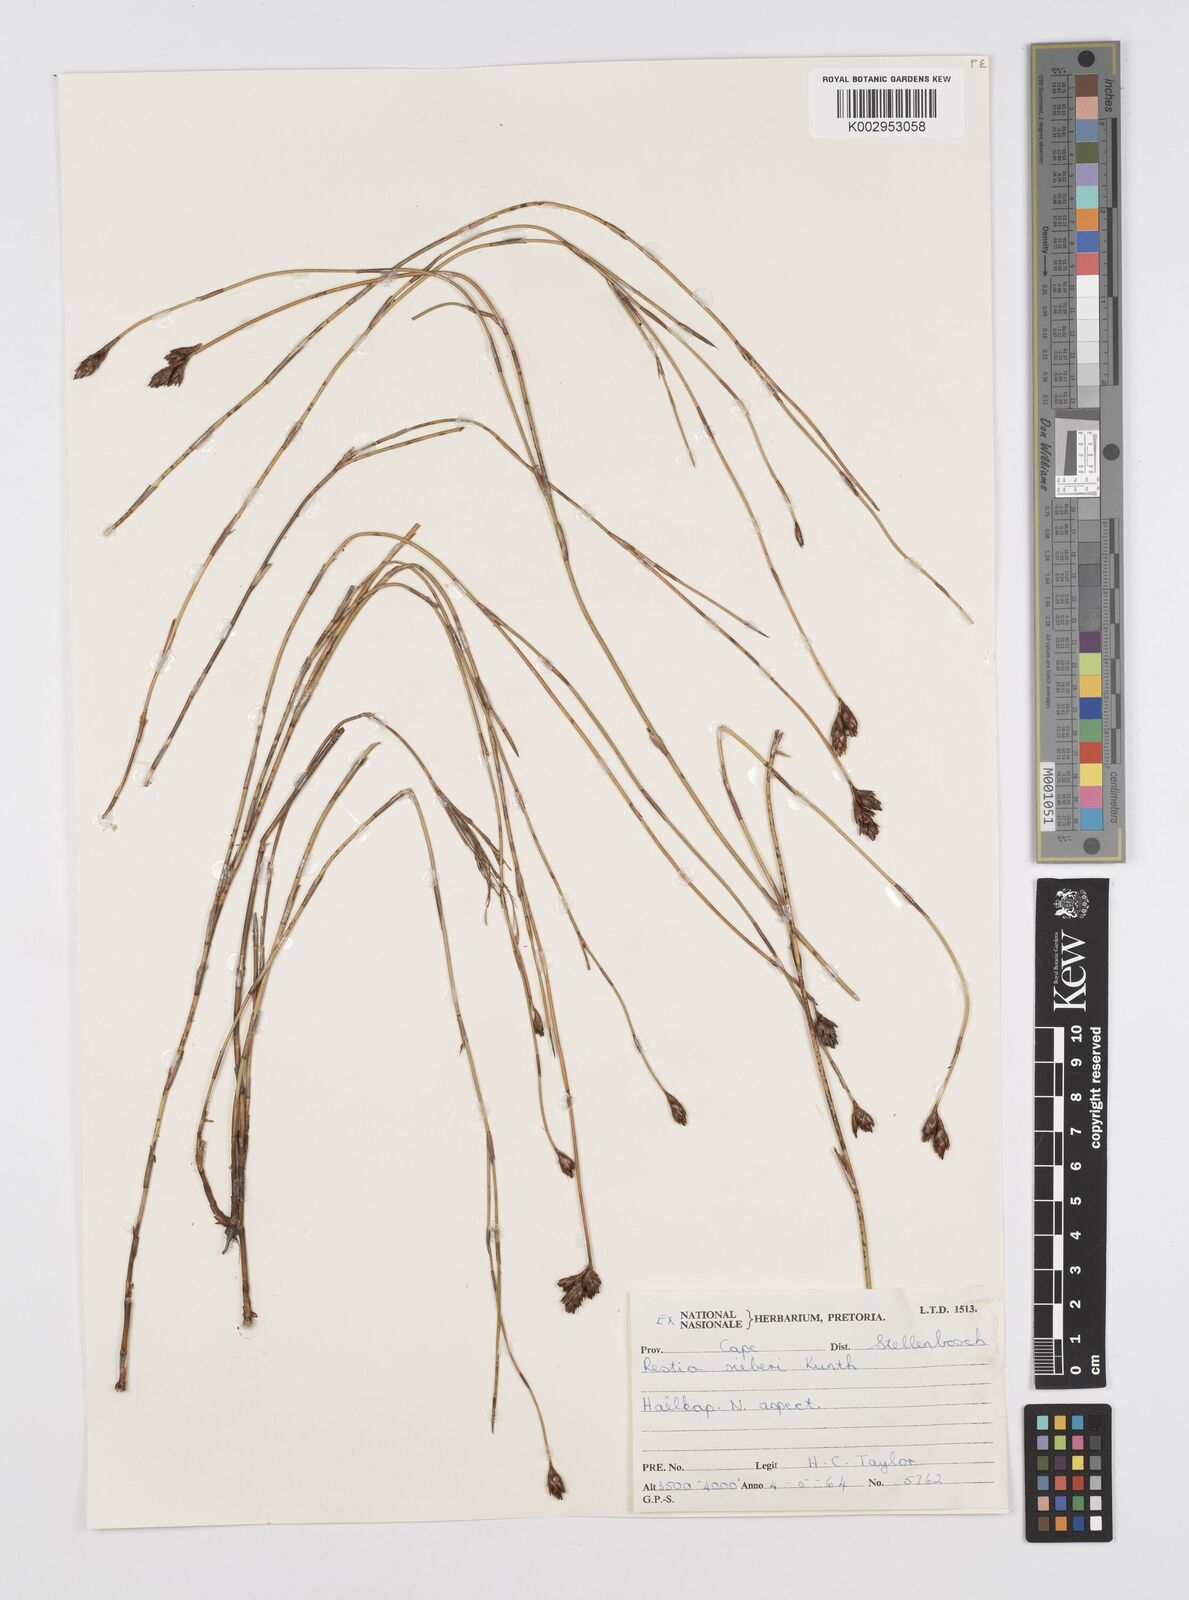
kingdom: Plantae
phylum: Tracheophyta
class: Liliopsida
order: Poales
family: Restionaceae
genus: Restio
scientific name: Restio sieberi
